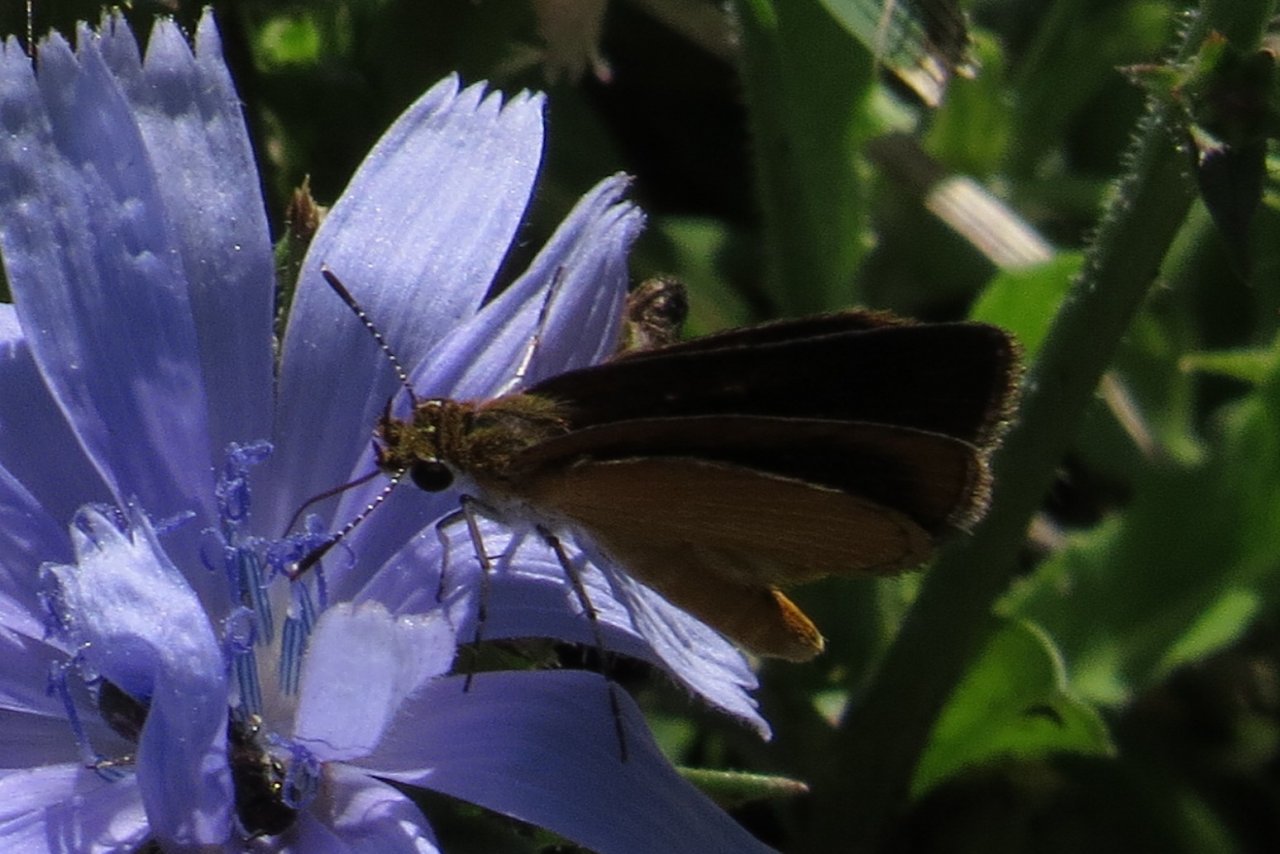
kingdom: Animalia
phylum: Arthropoda
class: Insecta
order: Lepidoptera
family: Hesperiidae
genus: Ancyloxypha
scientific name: Ancyloxypha numitor
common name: Least Skipper
